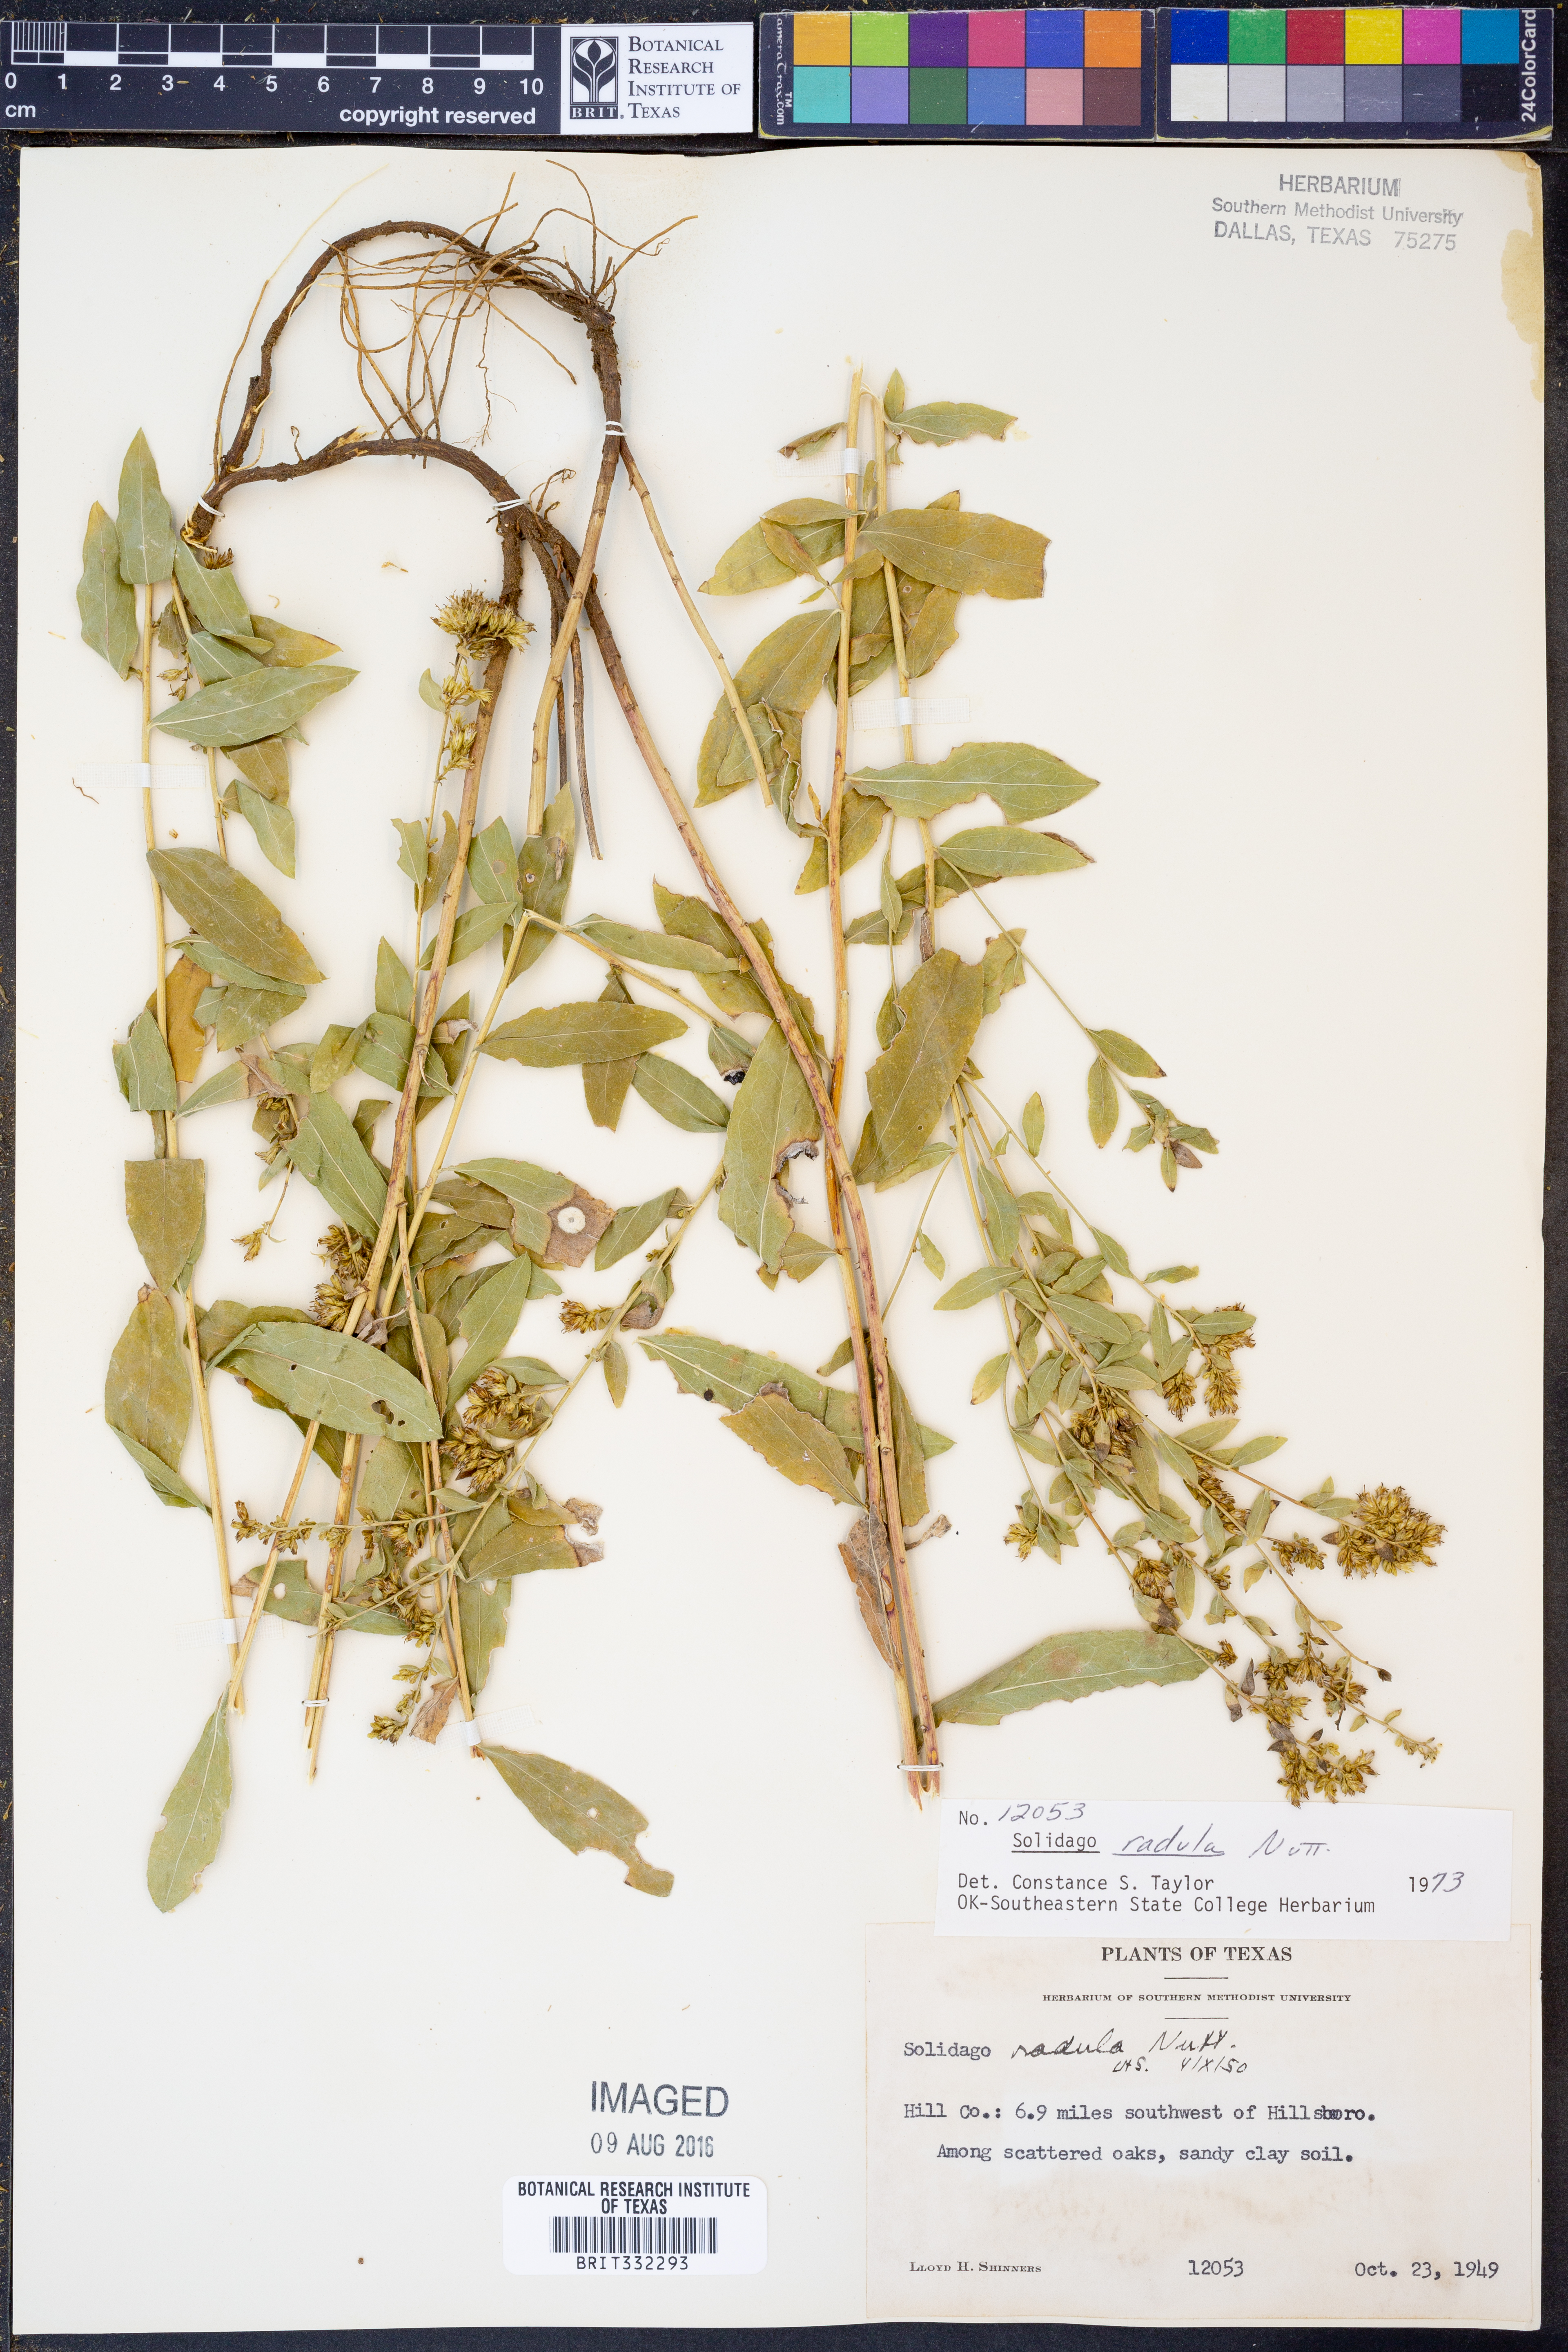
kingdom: Plantae
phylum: Tracheophyta
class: Magnoliopsida
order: Asterales
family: Asteraceae
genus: Solidago
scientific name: Solidago radula
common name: Western rough goldenrod
